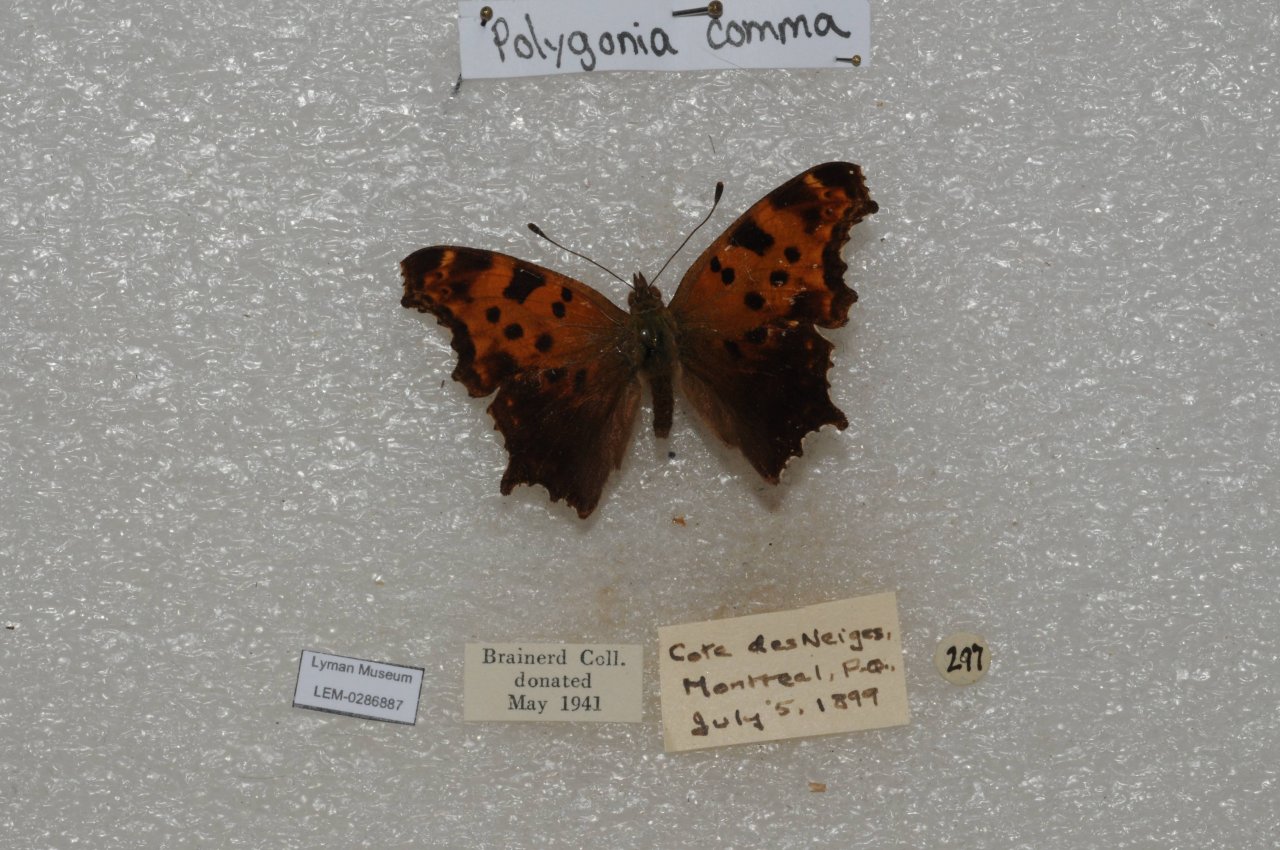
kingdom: Animalia
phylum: Arthropoda
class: Insecta
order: Lepidoptera
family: Nymphalidae
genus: Polygonia
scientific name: Polygonia comma
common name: Eastern Comma
